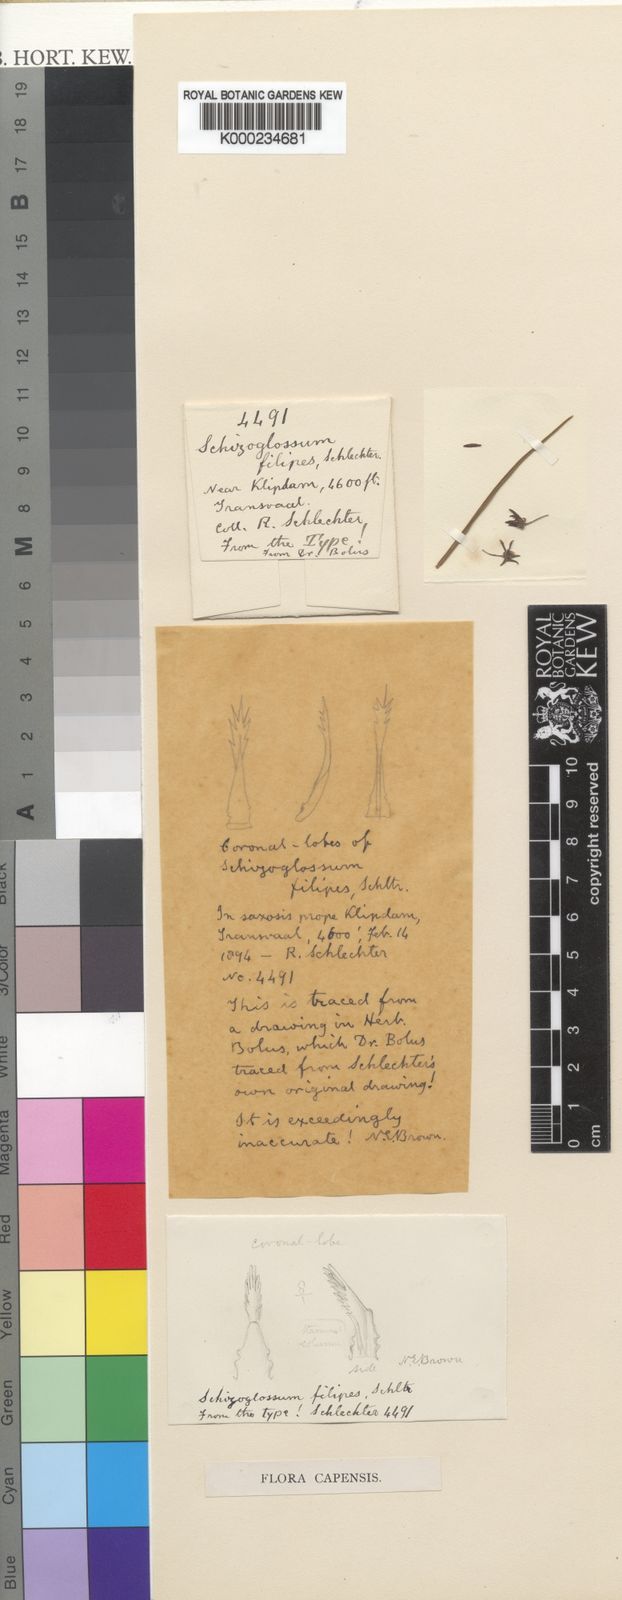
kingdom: Plantae
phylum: Tracheophyta
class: Magnoliopsida
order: Gentianales
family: Apocynaceae
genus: Aspidoglossum
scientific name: Aspidoglossum gracile
